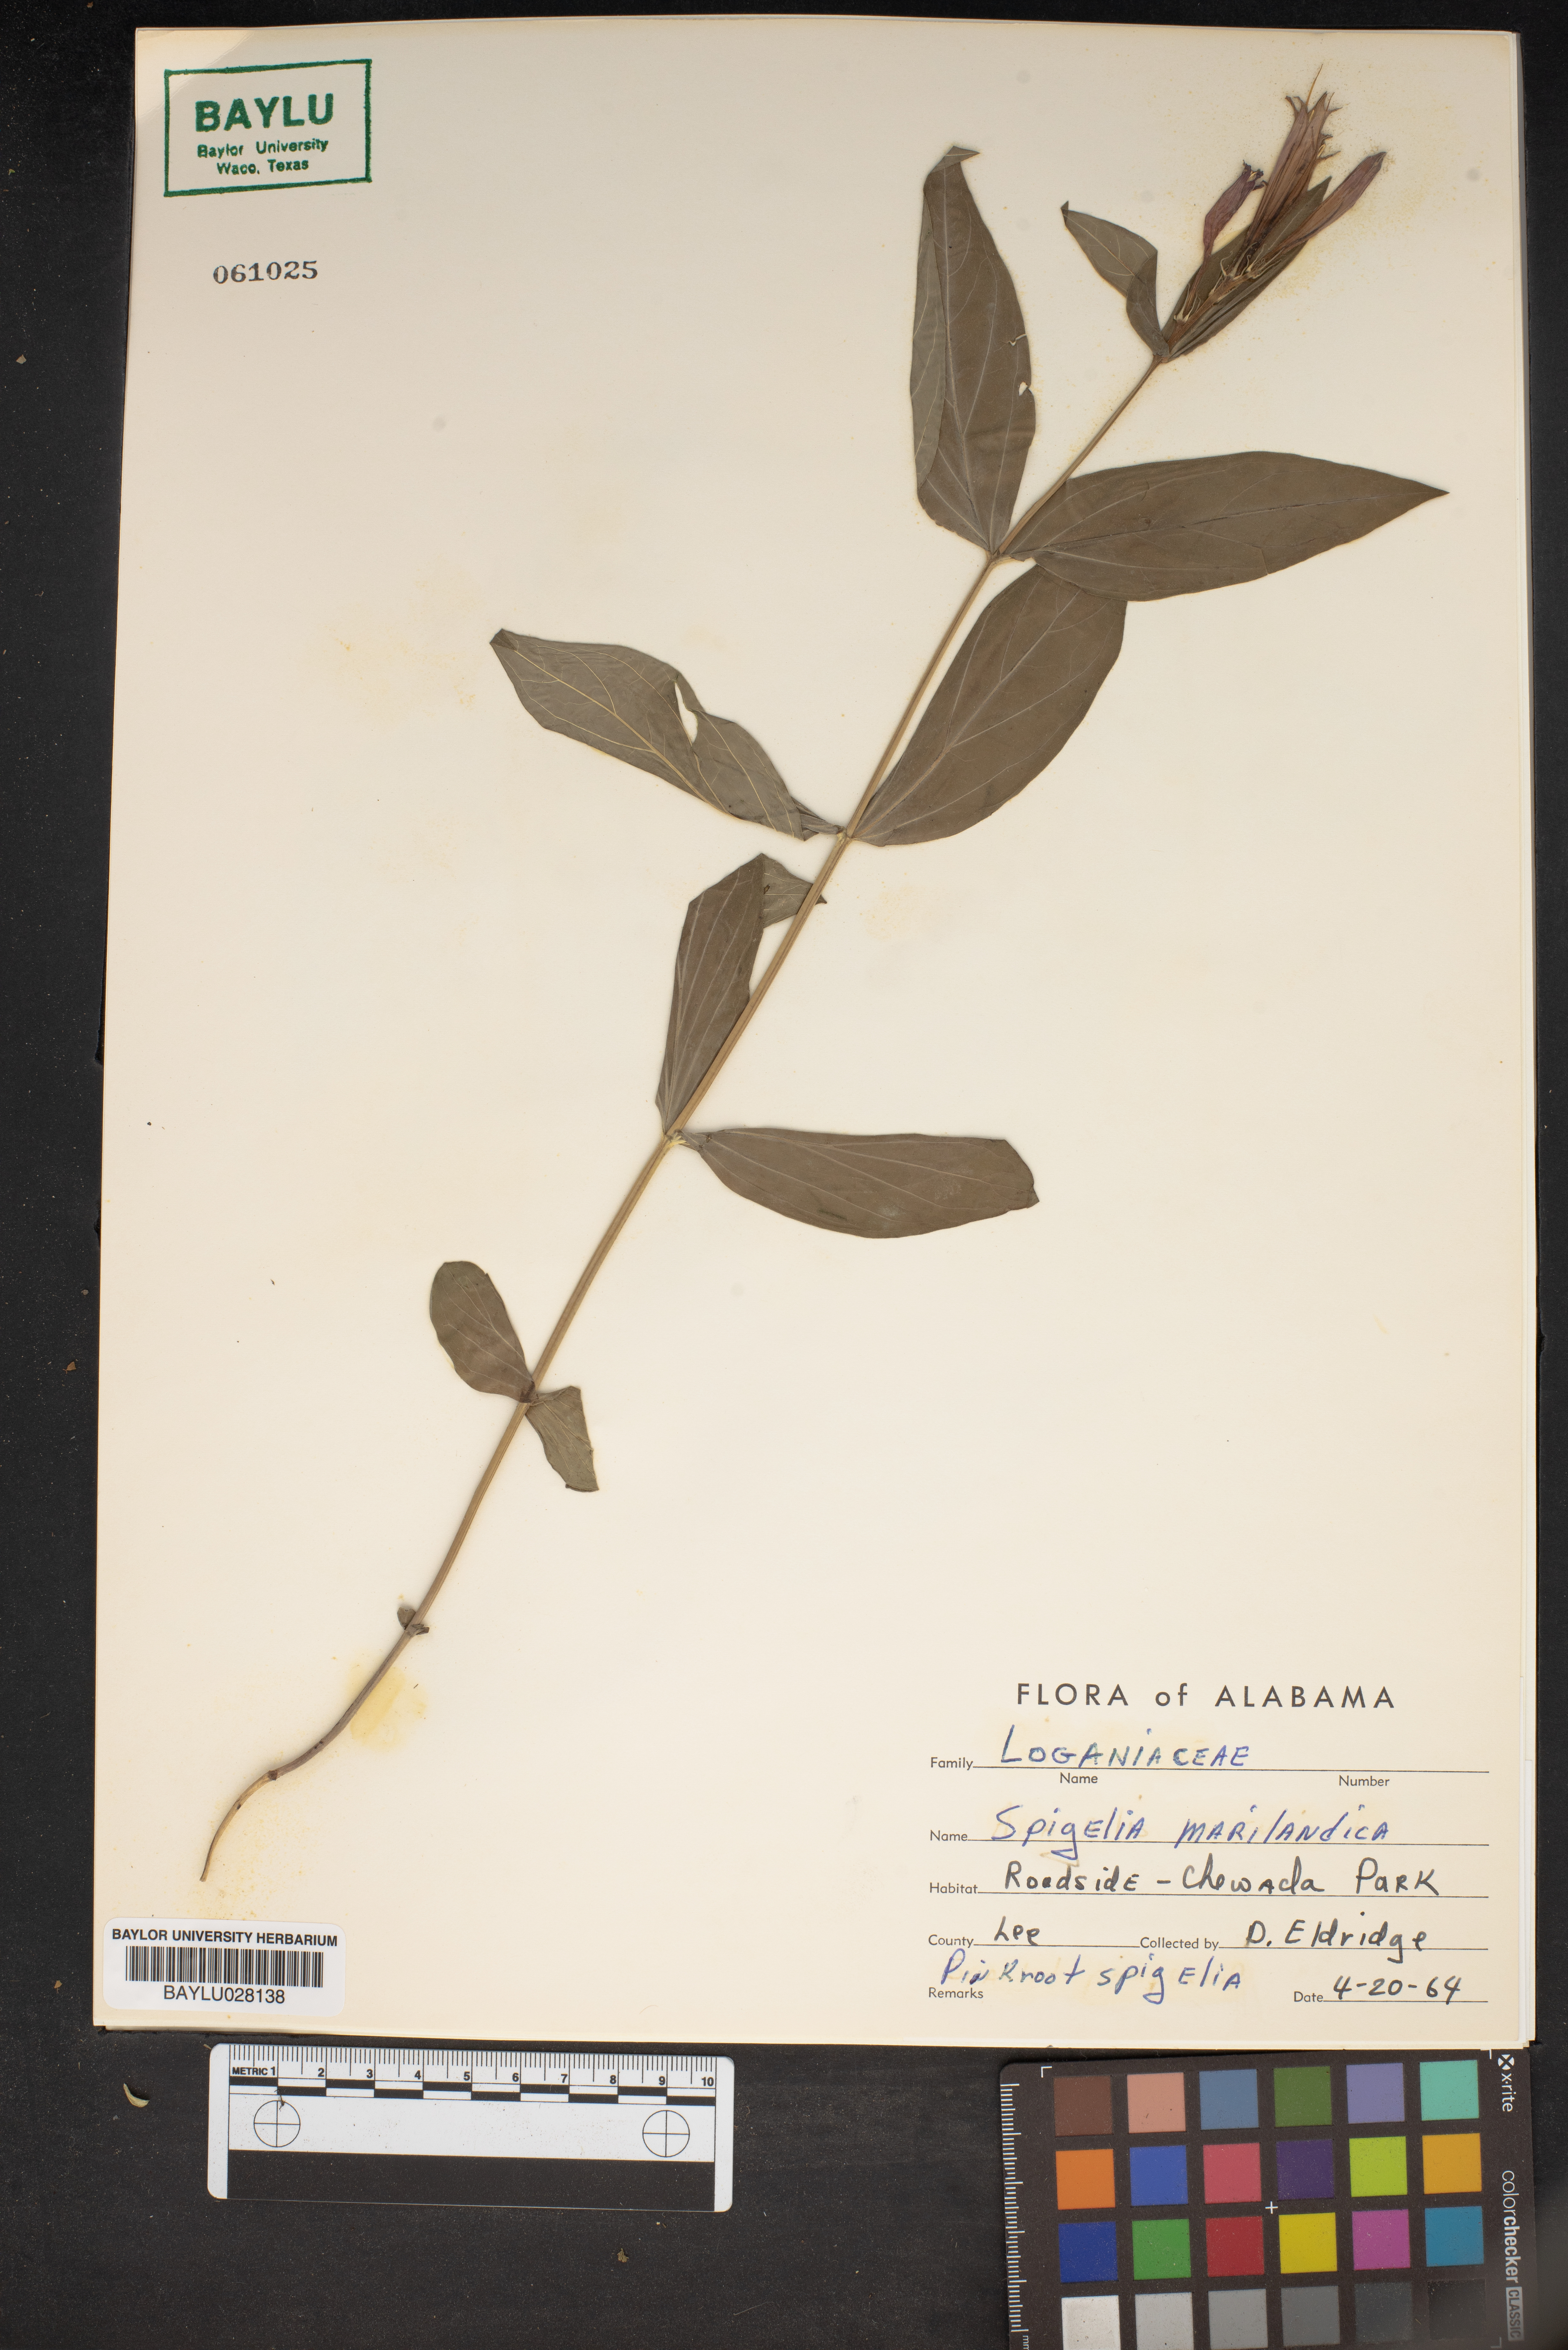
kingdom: Plantae
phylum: Tracheophyta
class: Magnoliopsida
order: Gentianales
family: Loganiaceae
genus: Spigelia
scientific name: Spigelia marilandica
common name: Indian-pink
